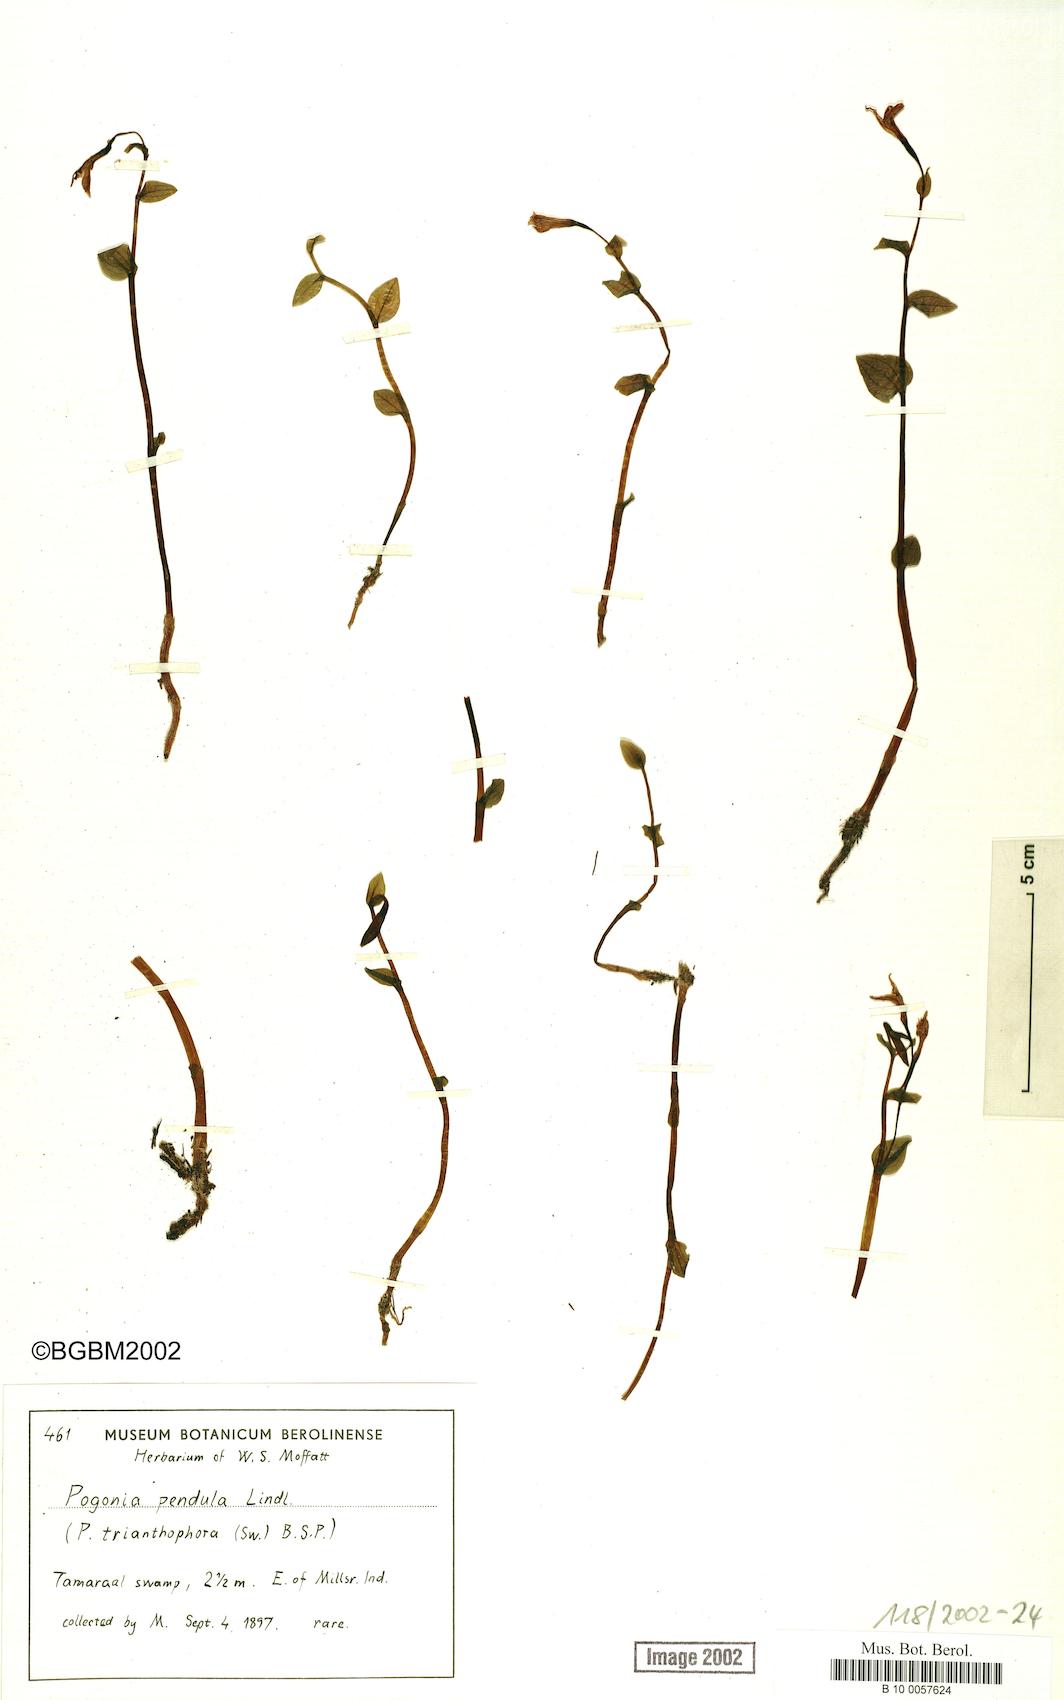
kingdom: Plantae
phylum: Tracheophyta
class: Liliopsida
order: Asparagales
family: Orchidaceae
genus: Pogonia
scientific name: Pogonia ophioglossoides
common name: Rose pogonia
